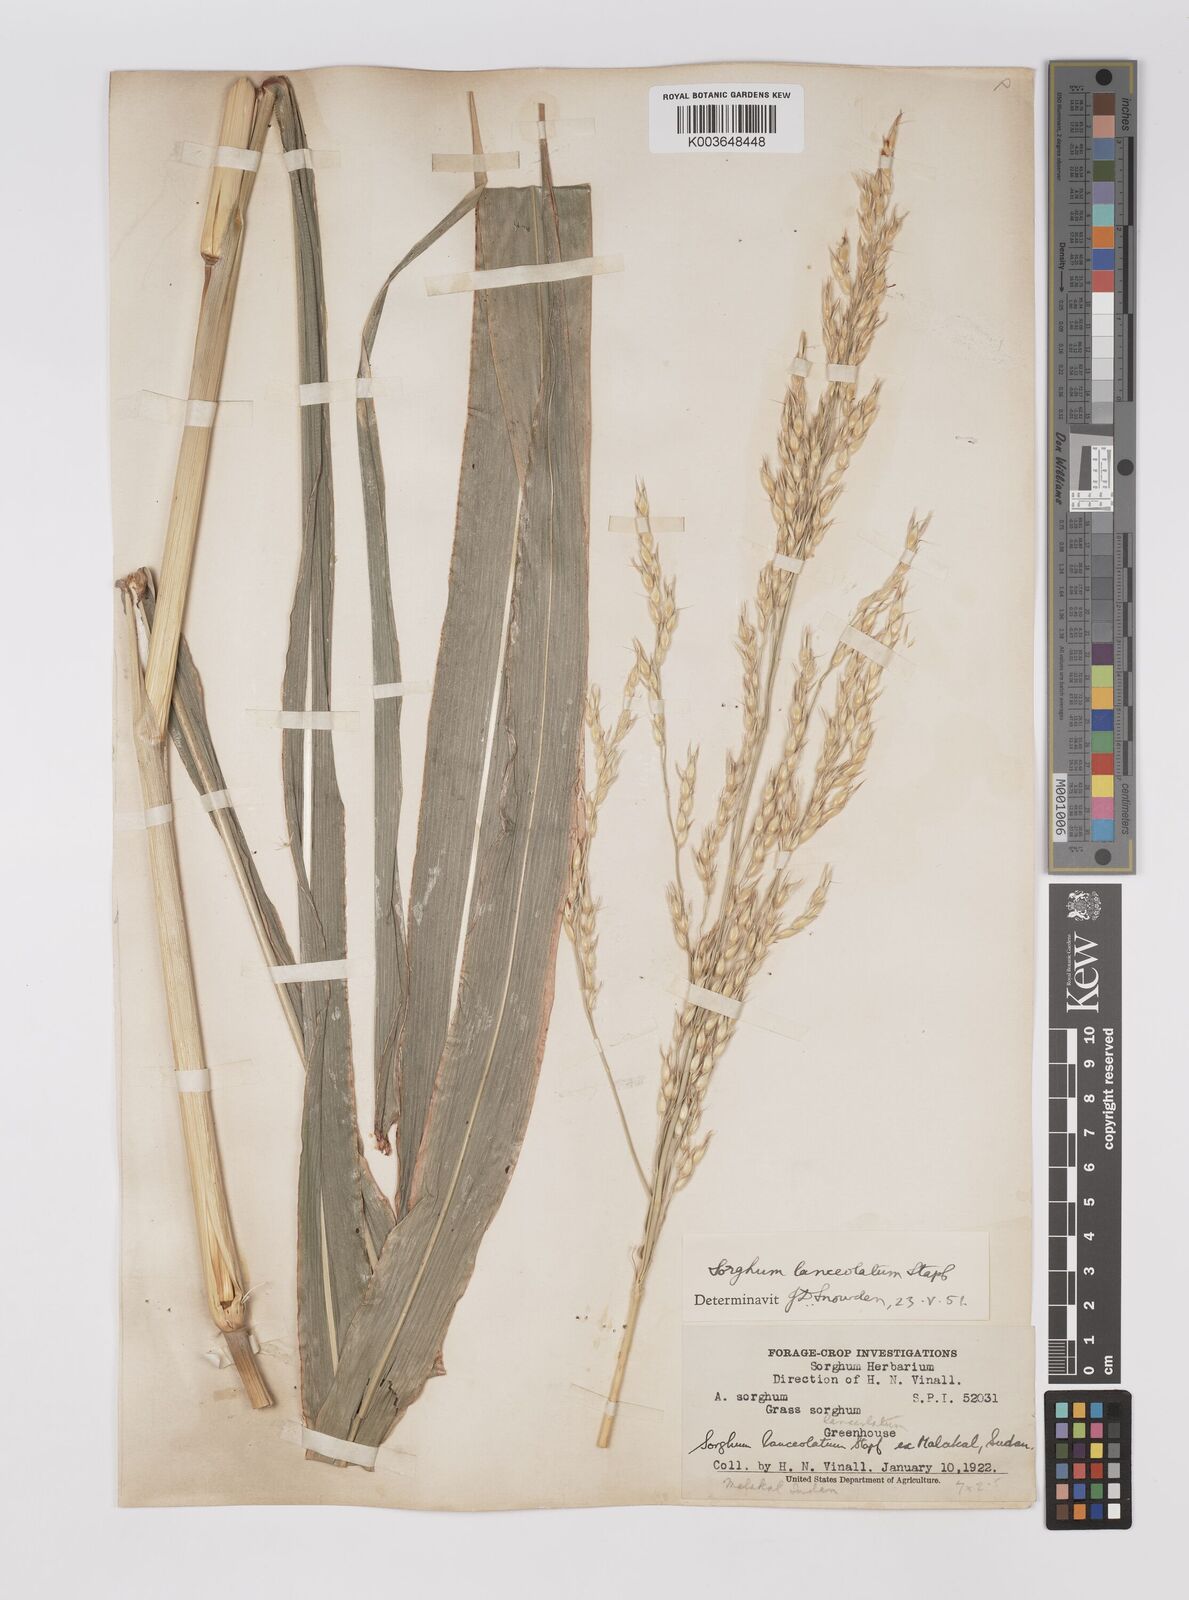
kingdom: Plantae
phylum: Tracheophyta
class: Liliopsida
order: Poales
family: Poaceae
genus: Sorghum
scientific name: Sorghum arundinaceum
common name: Sorghum
